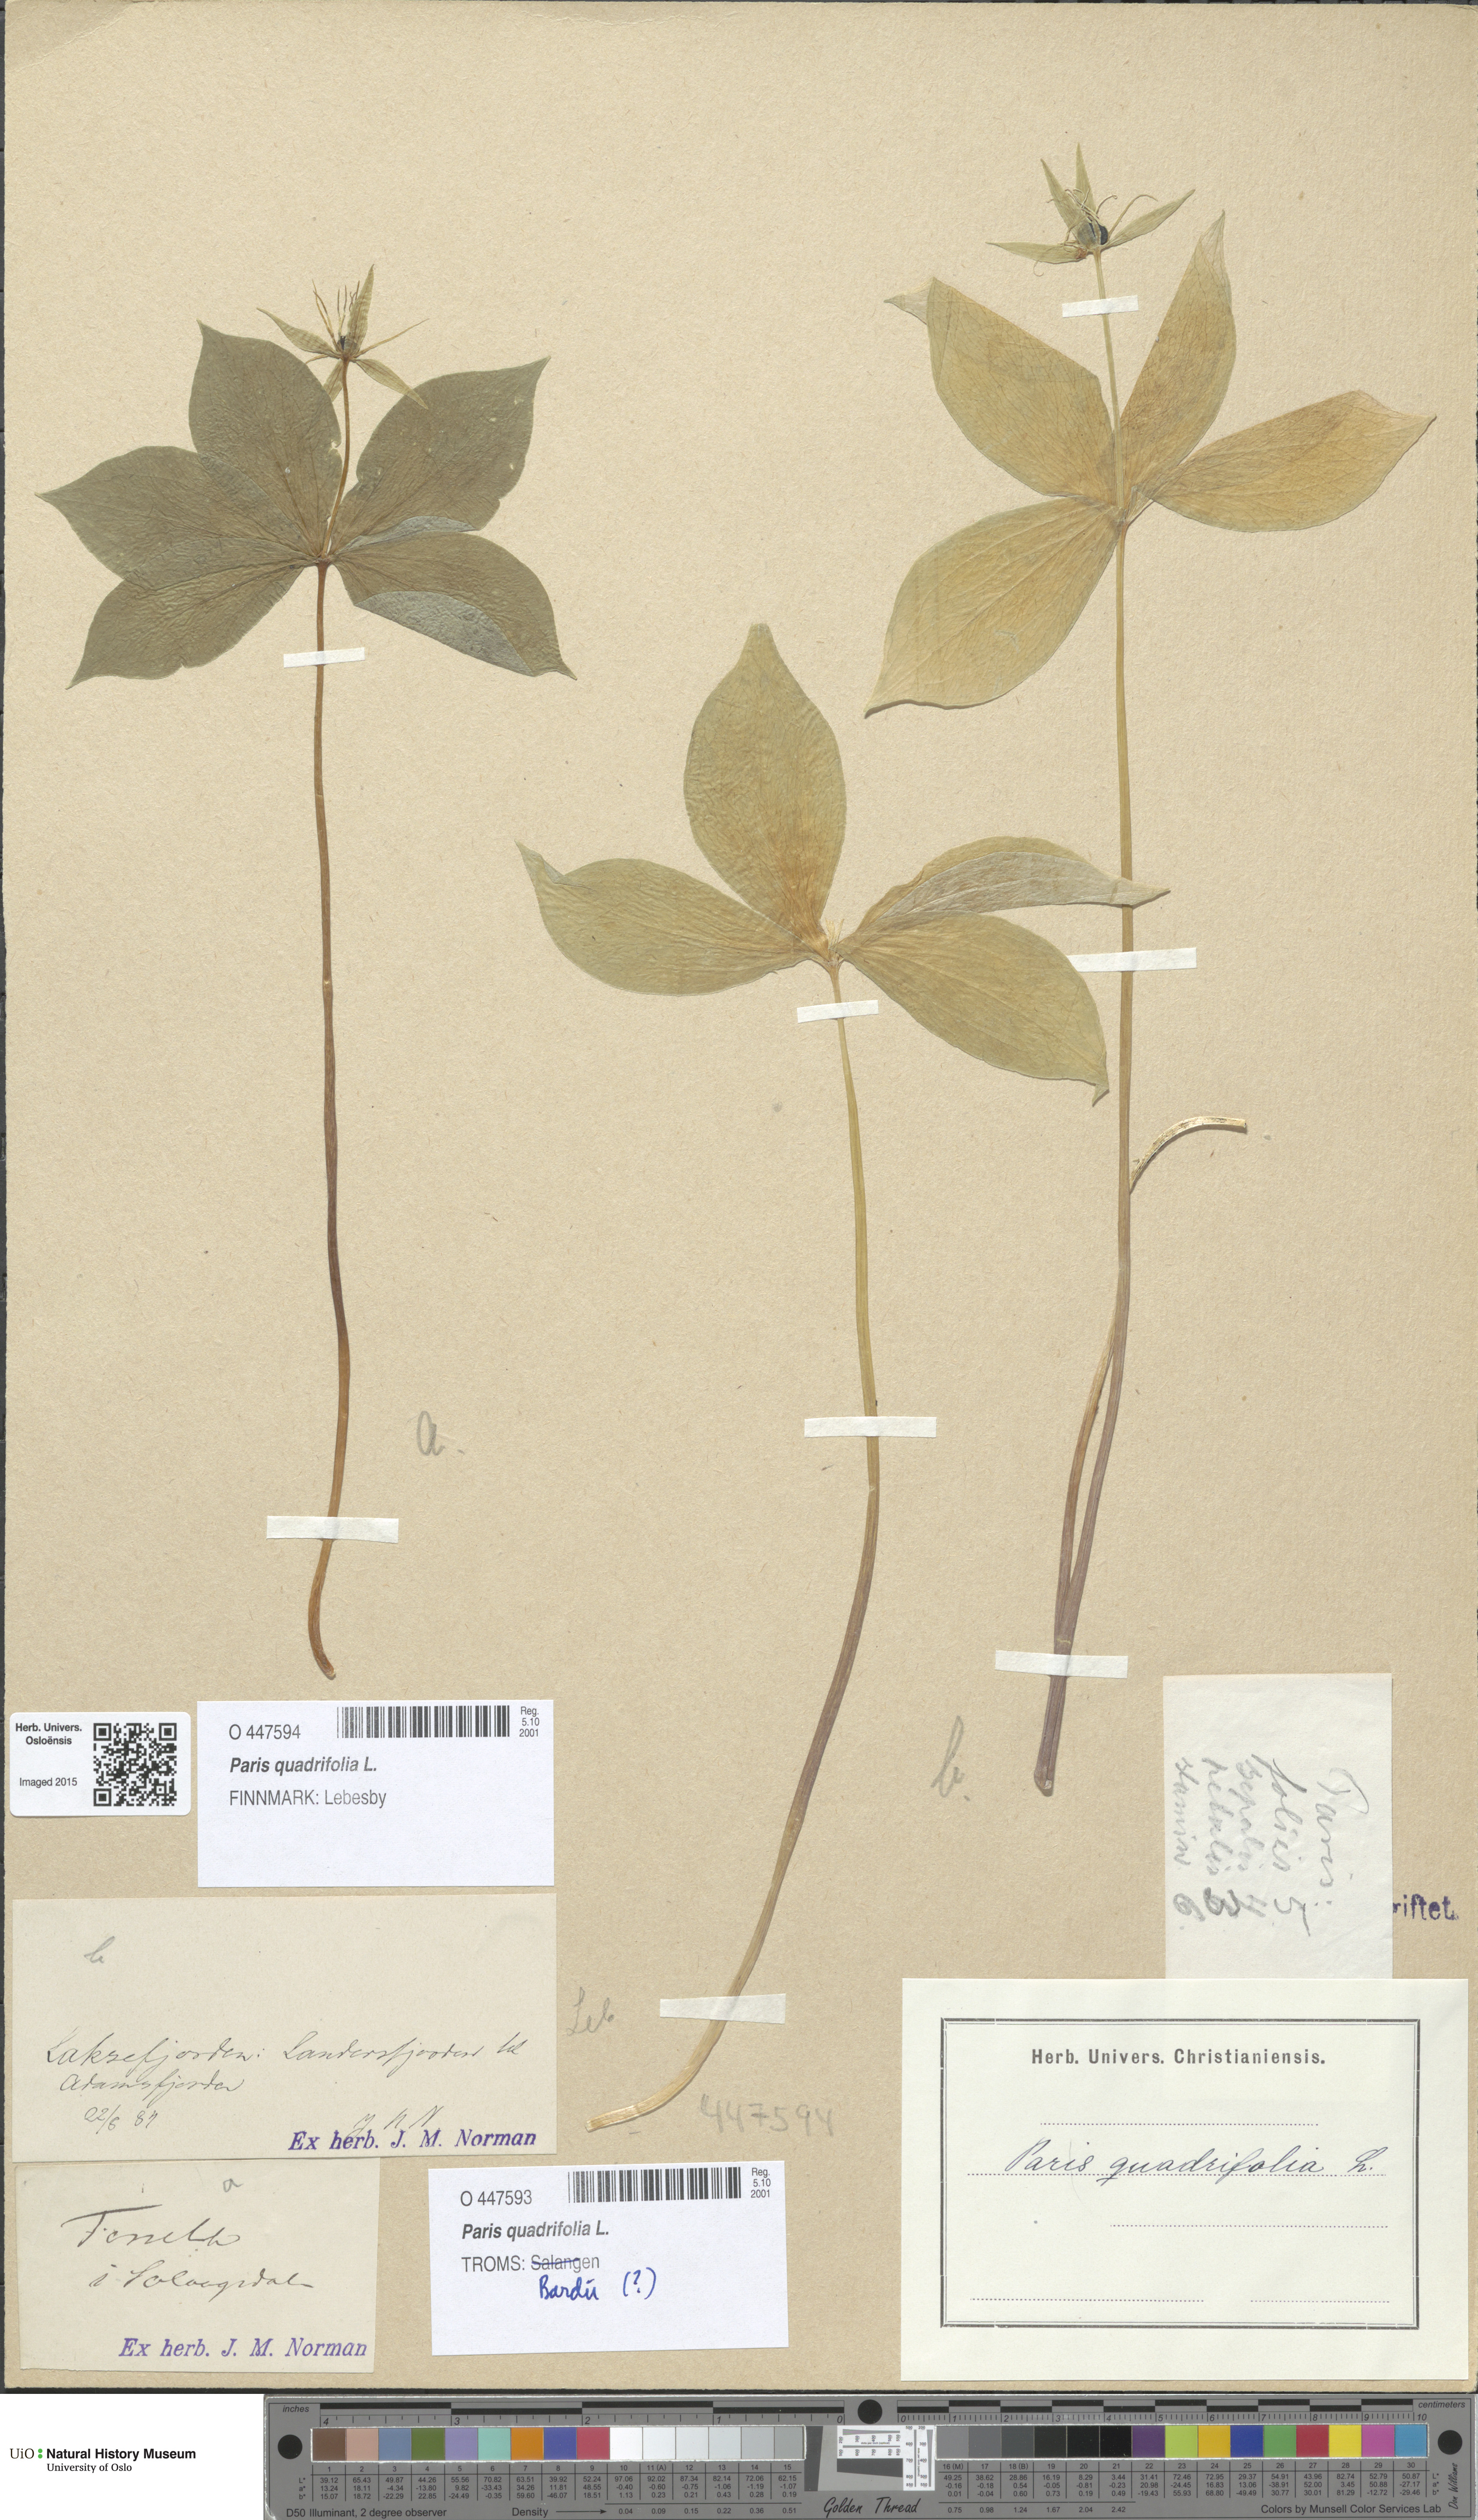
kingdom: Plantae
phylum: Tracheophyta
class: Liliopsida
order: Liliales
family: Melanthiaceae
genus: Paris
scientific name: Paris quadrifolia
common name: Herb-paris
